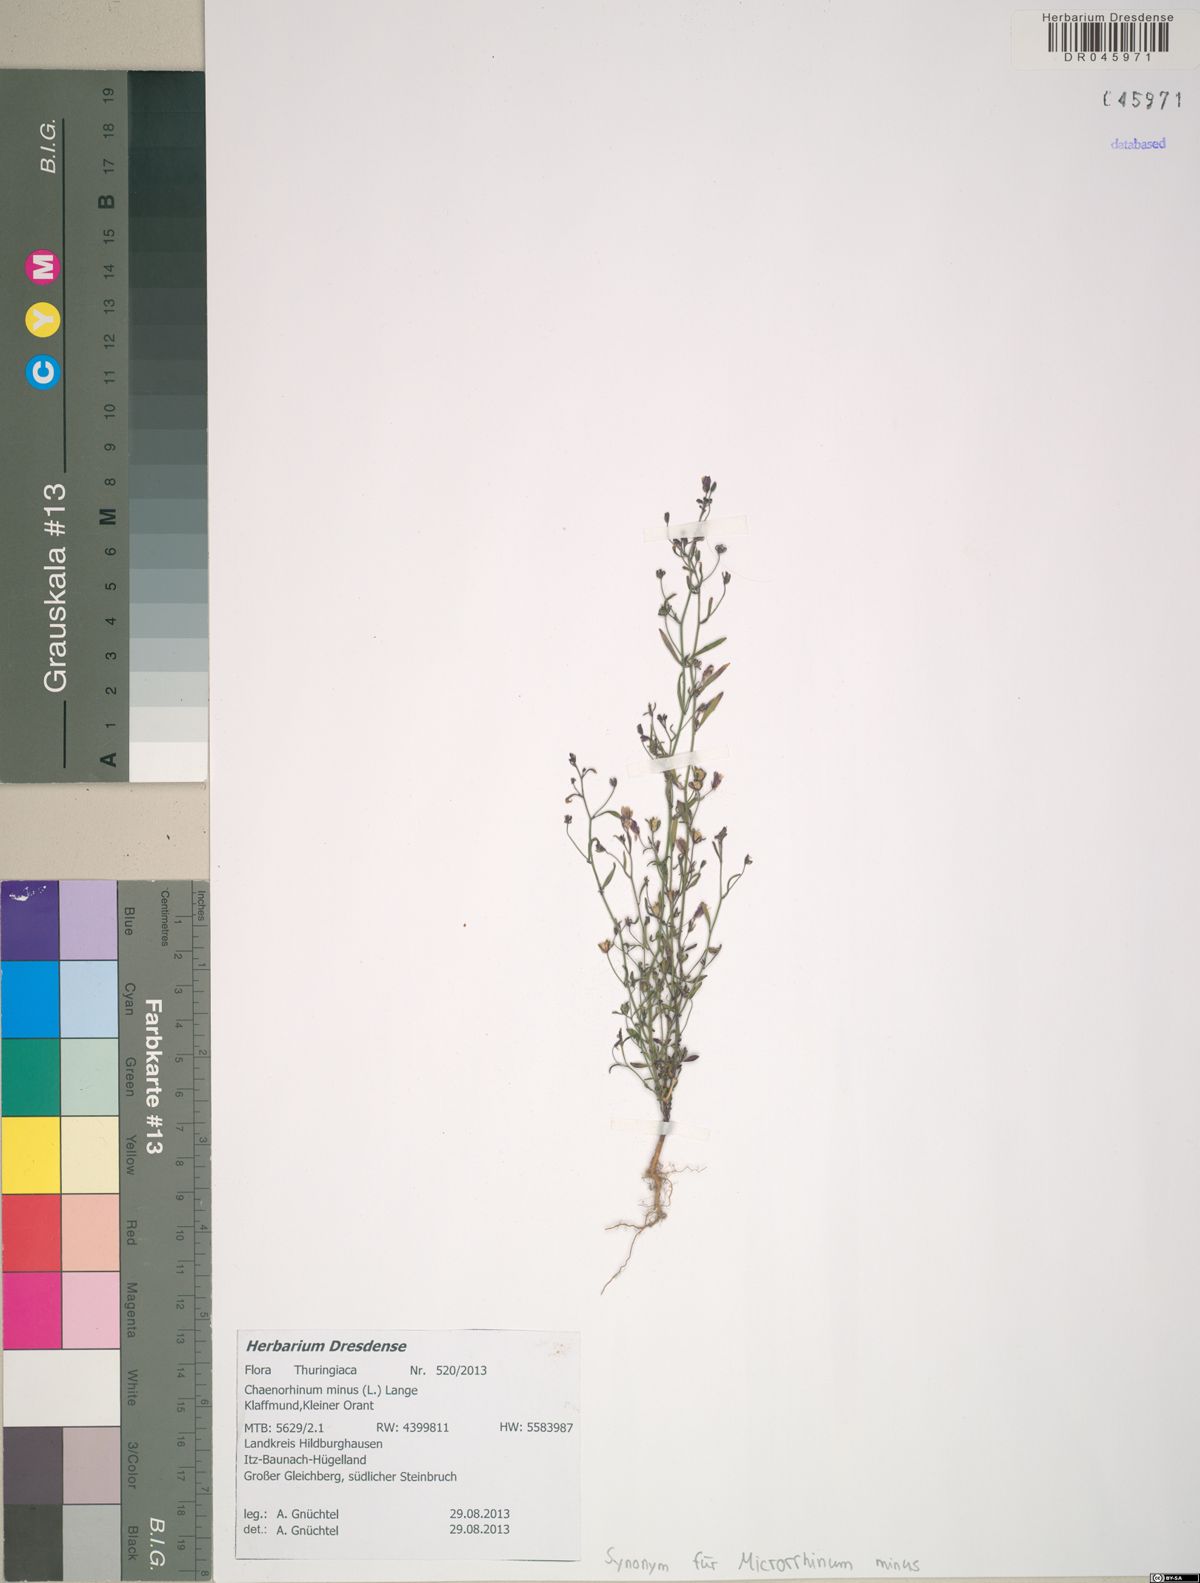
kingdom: Plantae
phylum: Tracheophyta
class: Magnoliopsida
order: Lamiales
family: Plantaginaceae
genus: Chaenorhinum
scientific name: Chaenorhinum minus
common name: Dwarf snapdragon
